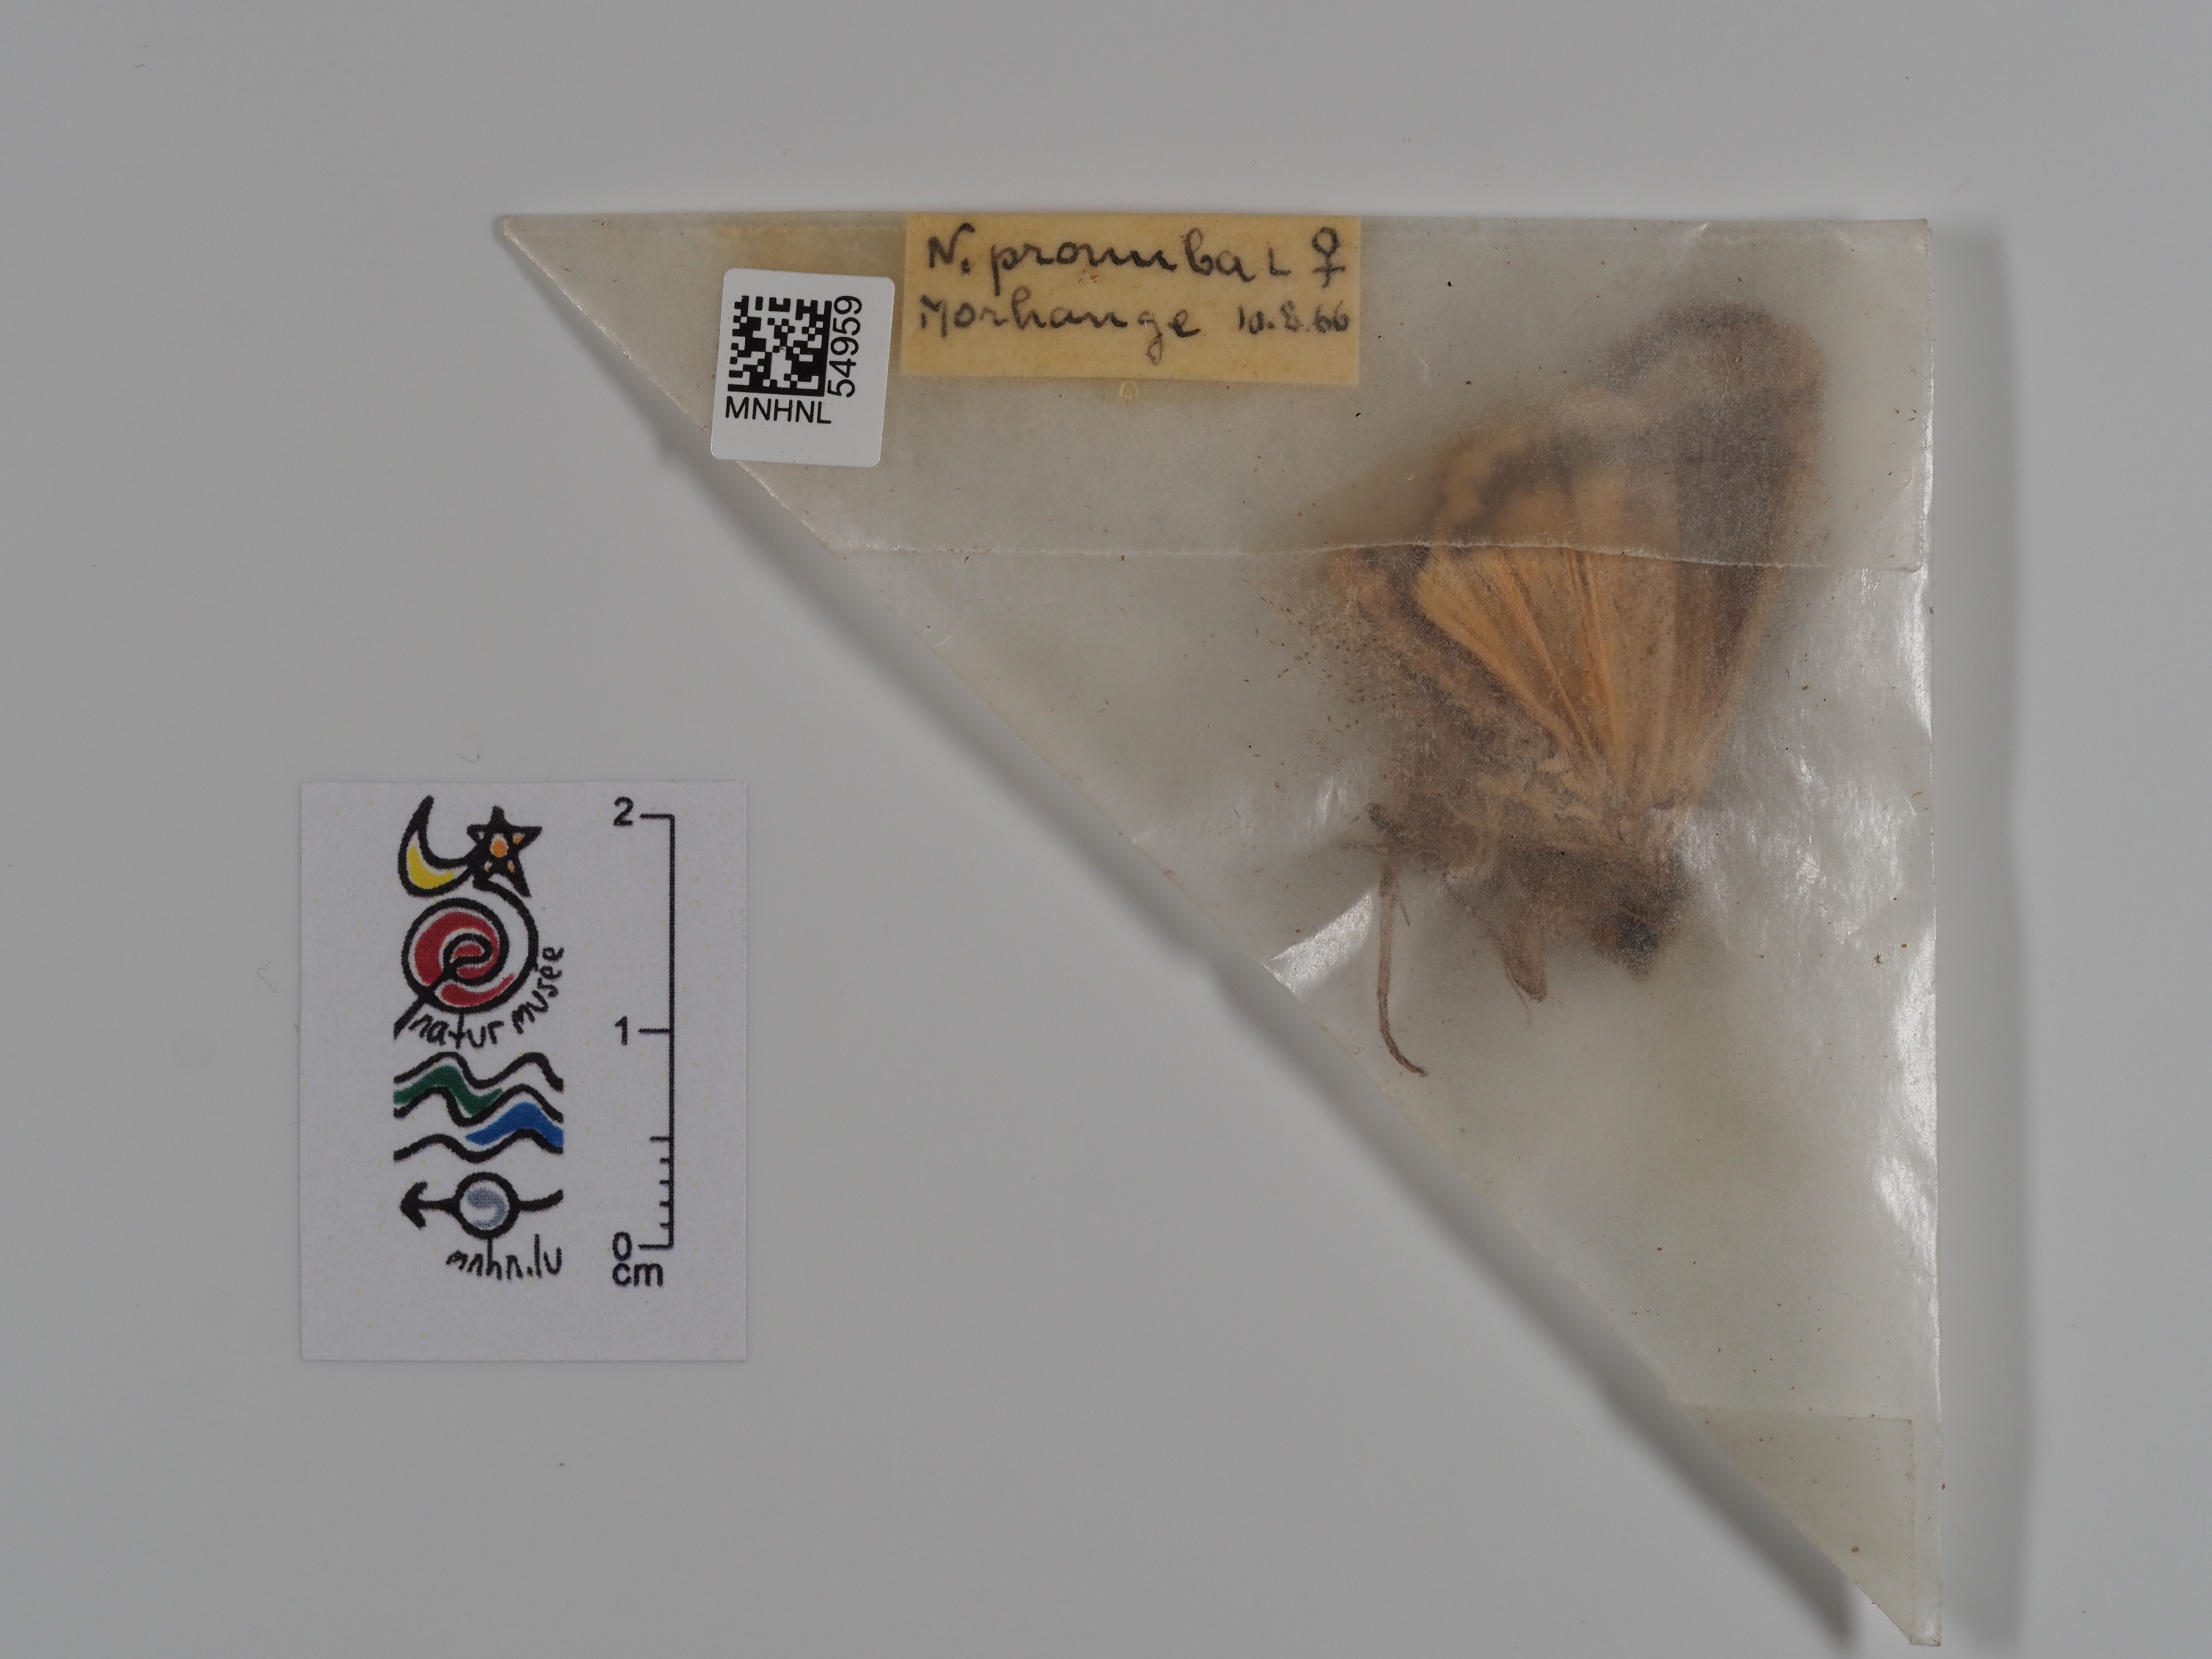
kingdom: Animalia
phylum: Arthropoda
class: Insecta
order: Lepidoptera
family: Noctuidae
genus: Noctua
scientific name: Noctua pronuba
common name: Large yellow underwing
